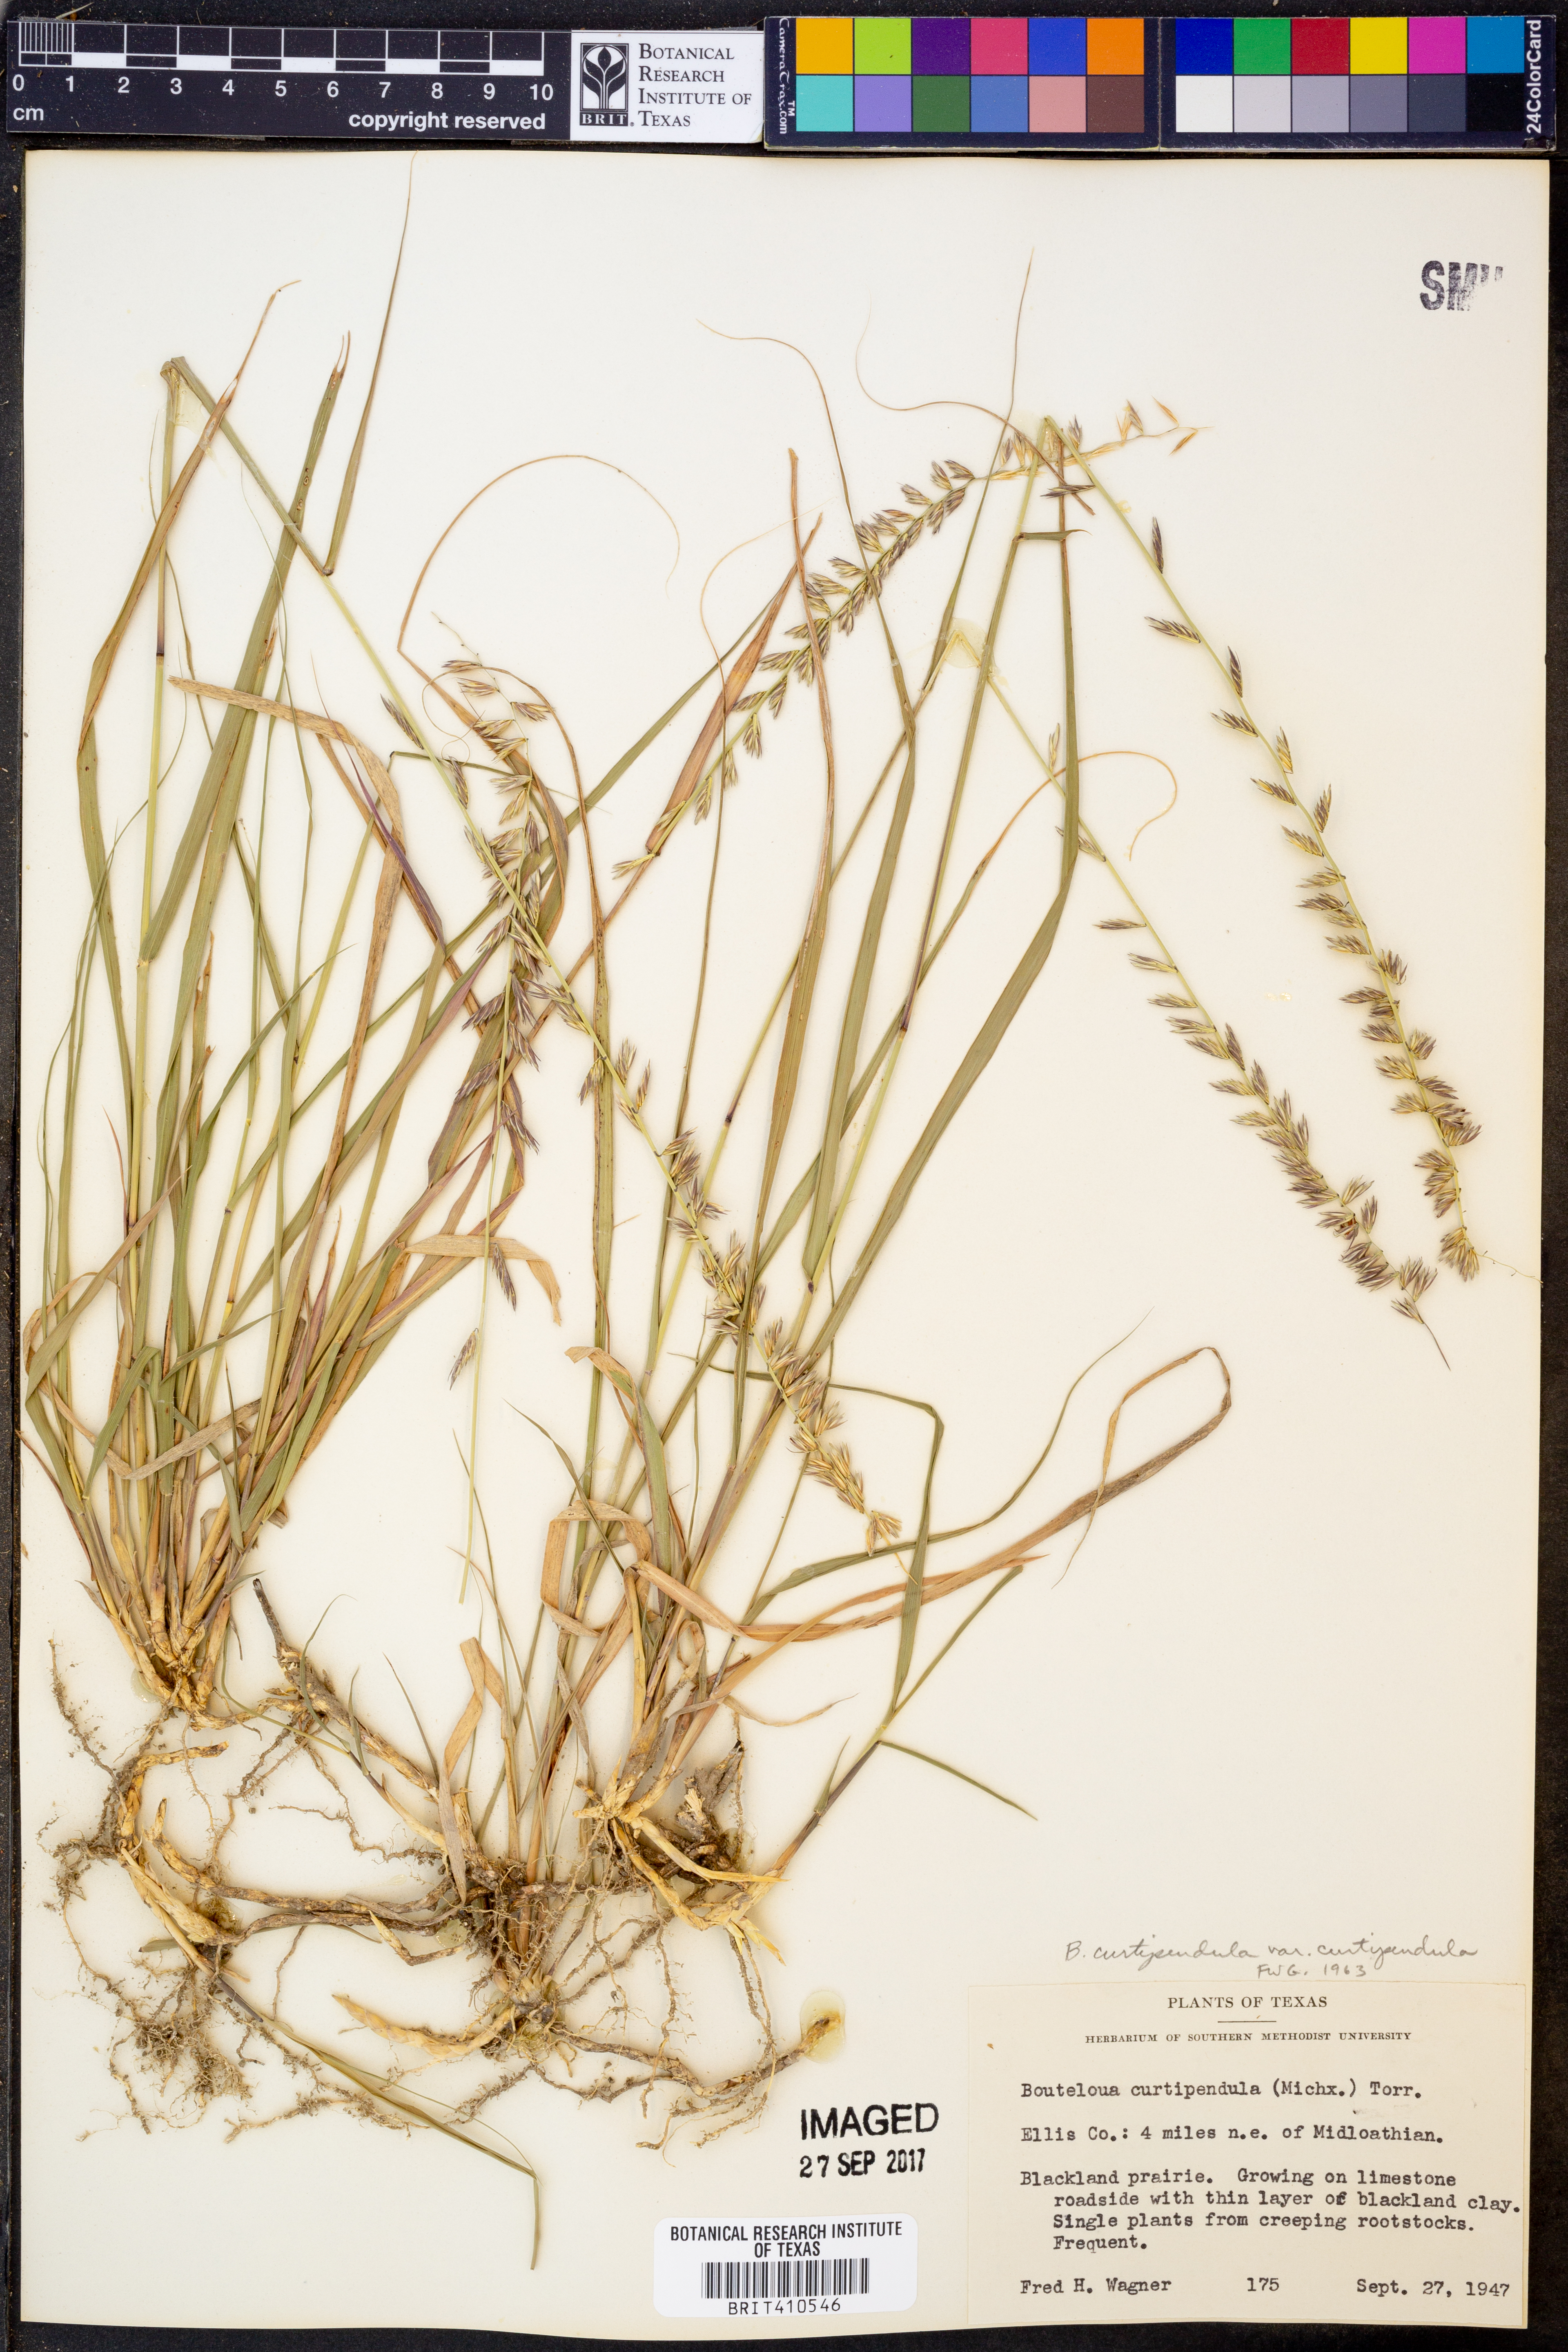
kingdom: Plantae
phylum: Tracheophyta
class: Liliopsida
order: Poales
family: Poaceae
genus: Bouteloua
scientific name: Bouteloua curtipendula
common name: Side-oats grama
